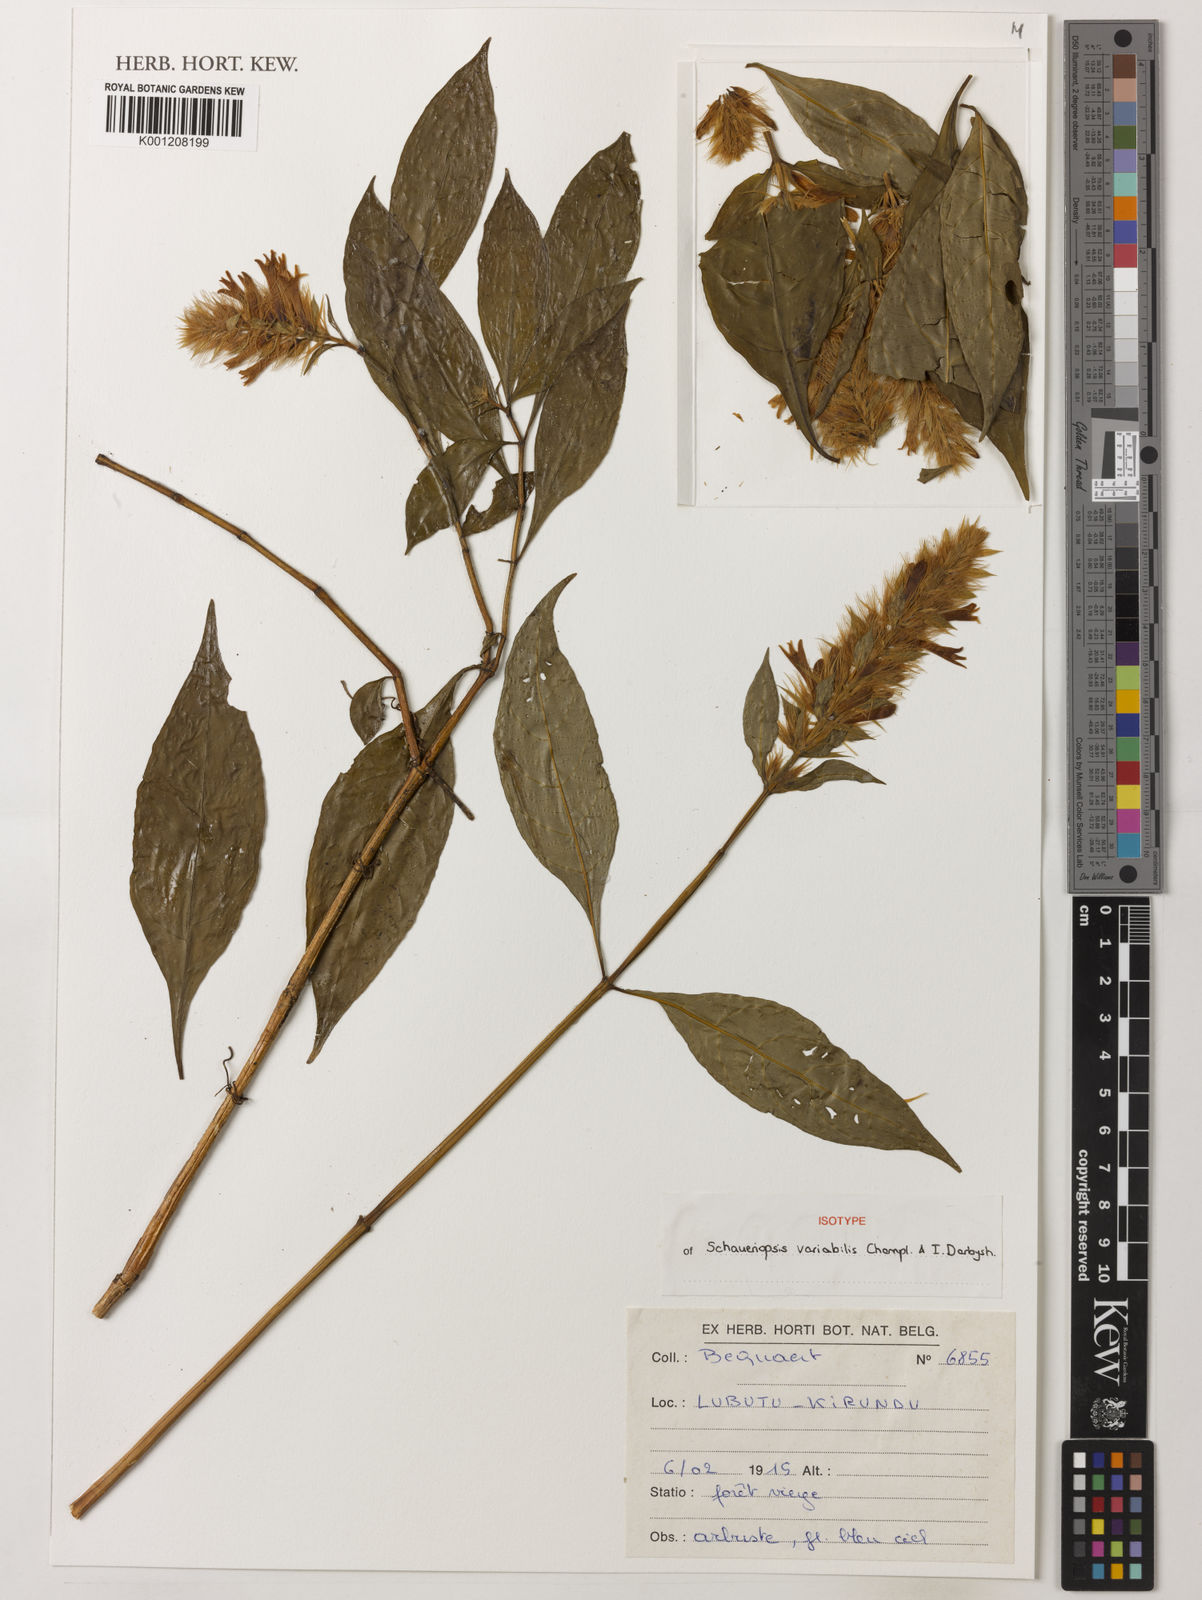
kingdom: Plantae
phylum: Tracheophyta
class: Magnoliopsida
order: Lamiales
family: Acanthaceae
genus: Schaueriopsis
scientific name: Schaueriopsis variabilis
